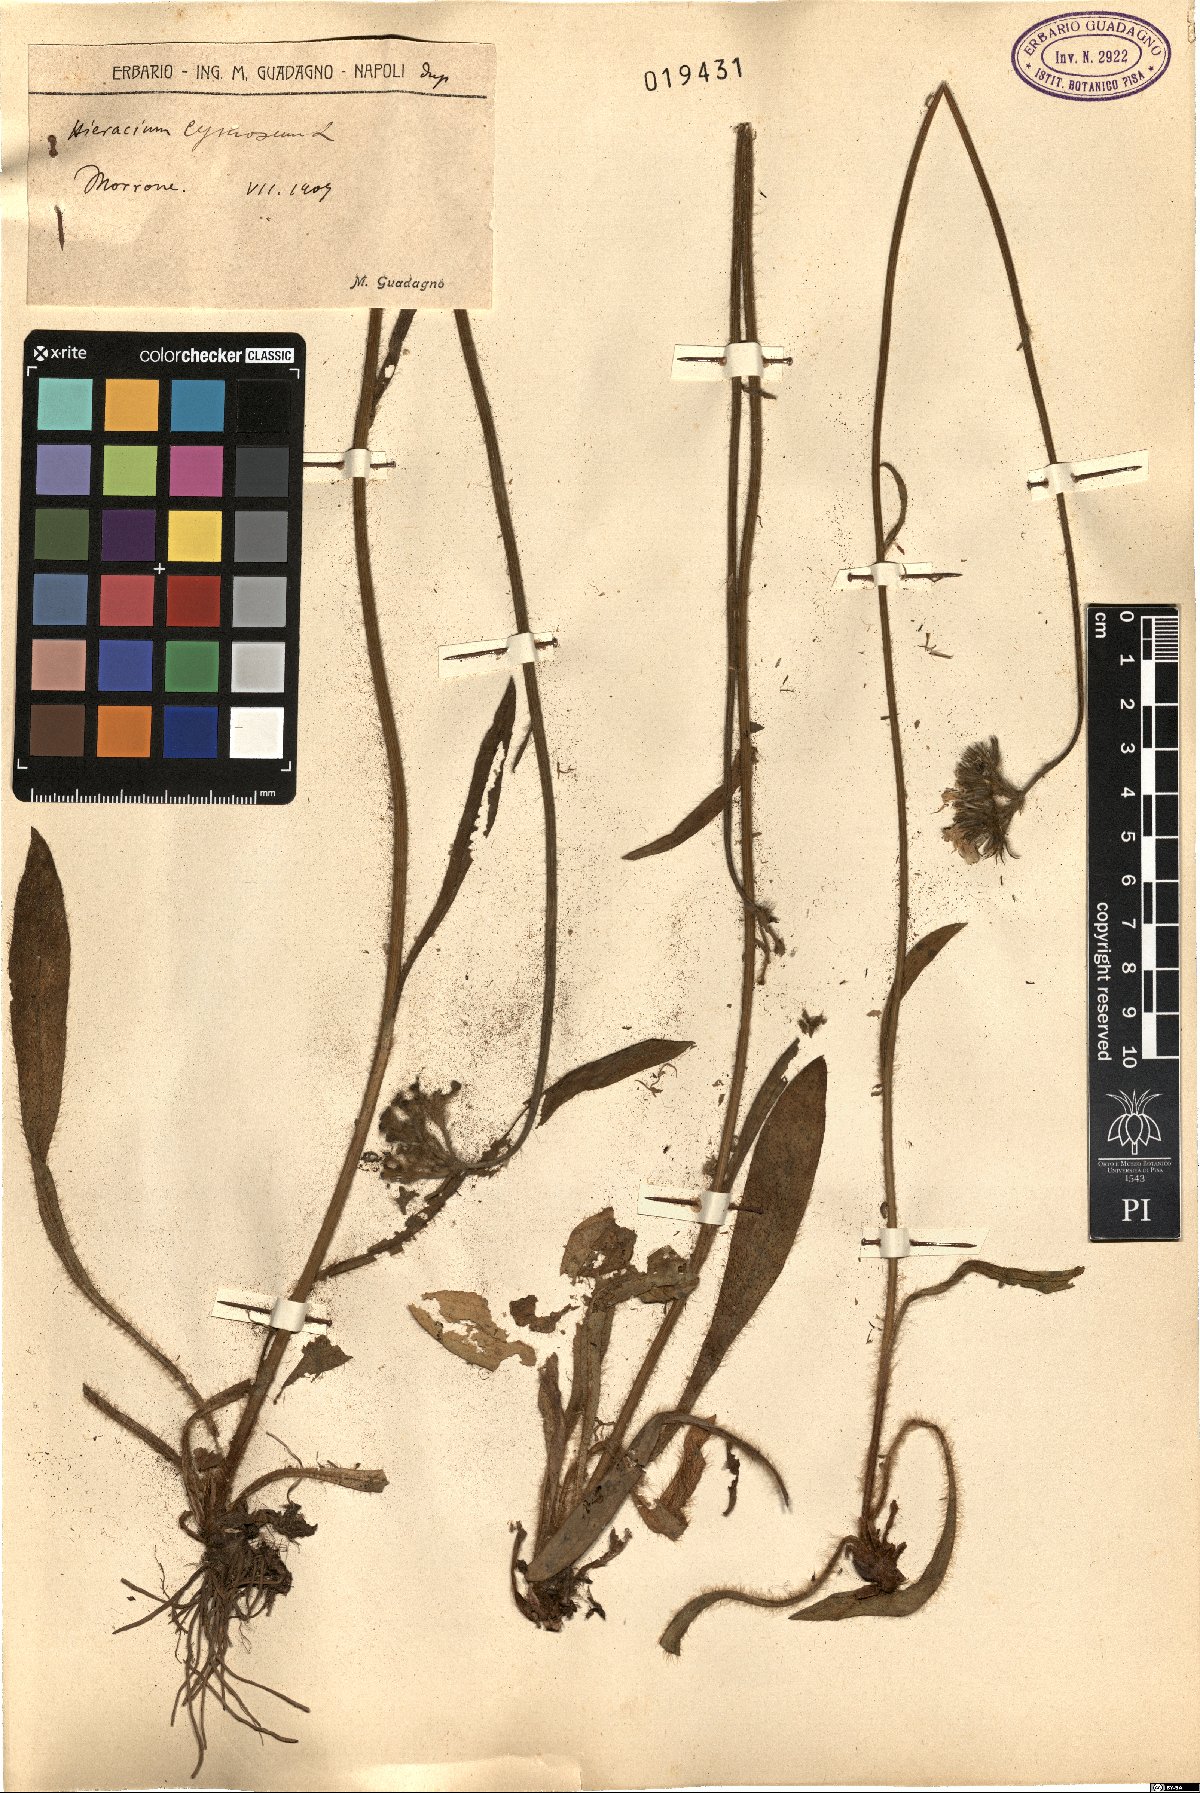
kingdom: Plantae
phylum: Tracheophyta
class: Magnoliopsida
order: Asterales
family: Asteraceae
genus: Pilosella
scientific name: Pilosella cymosa
